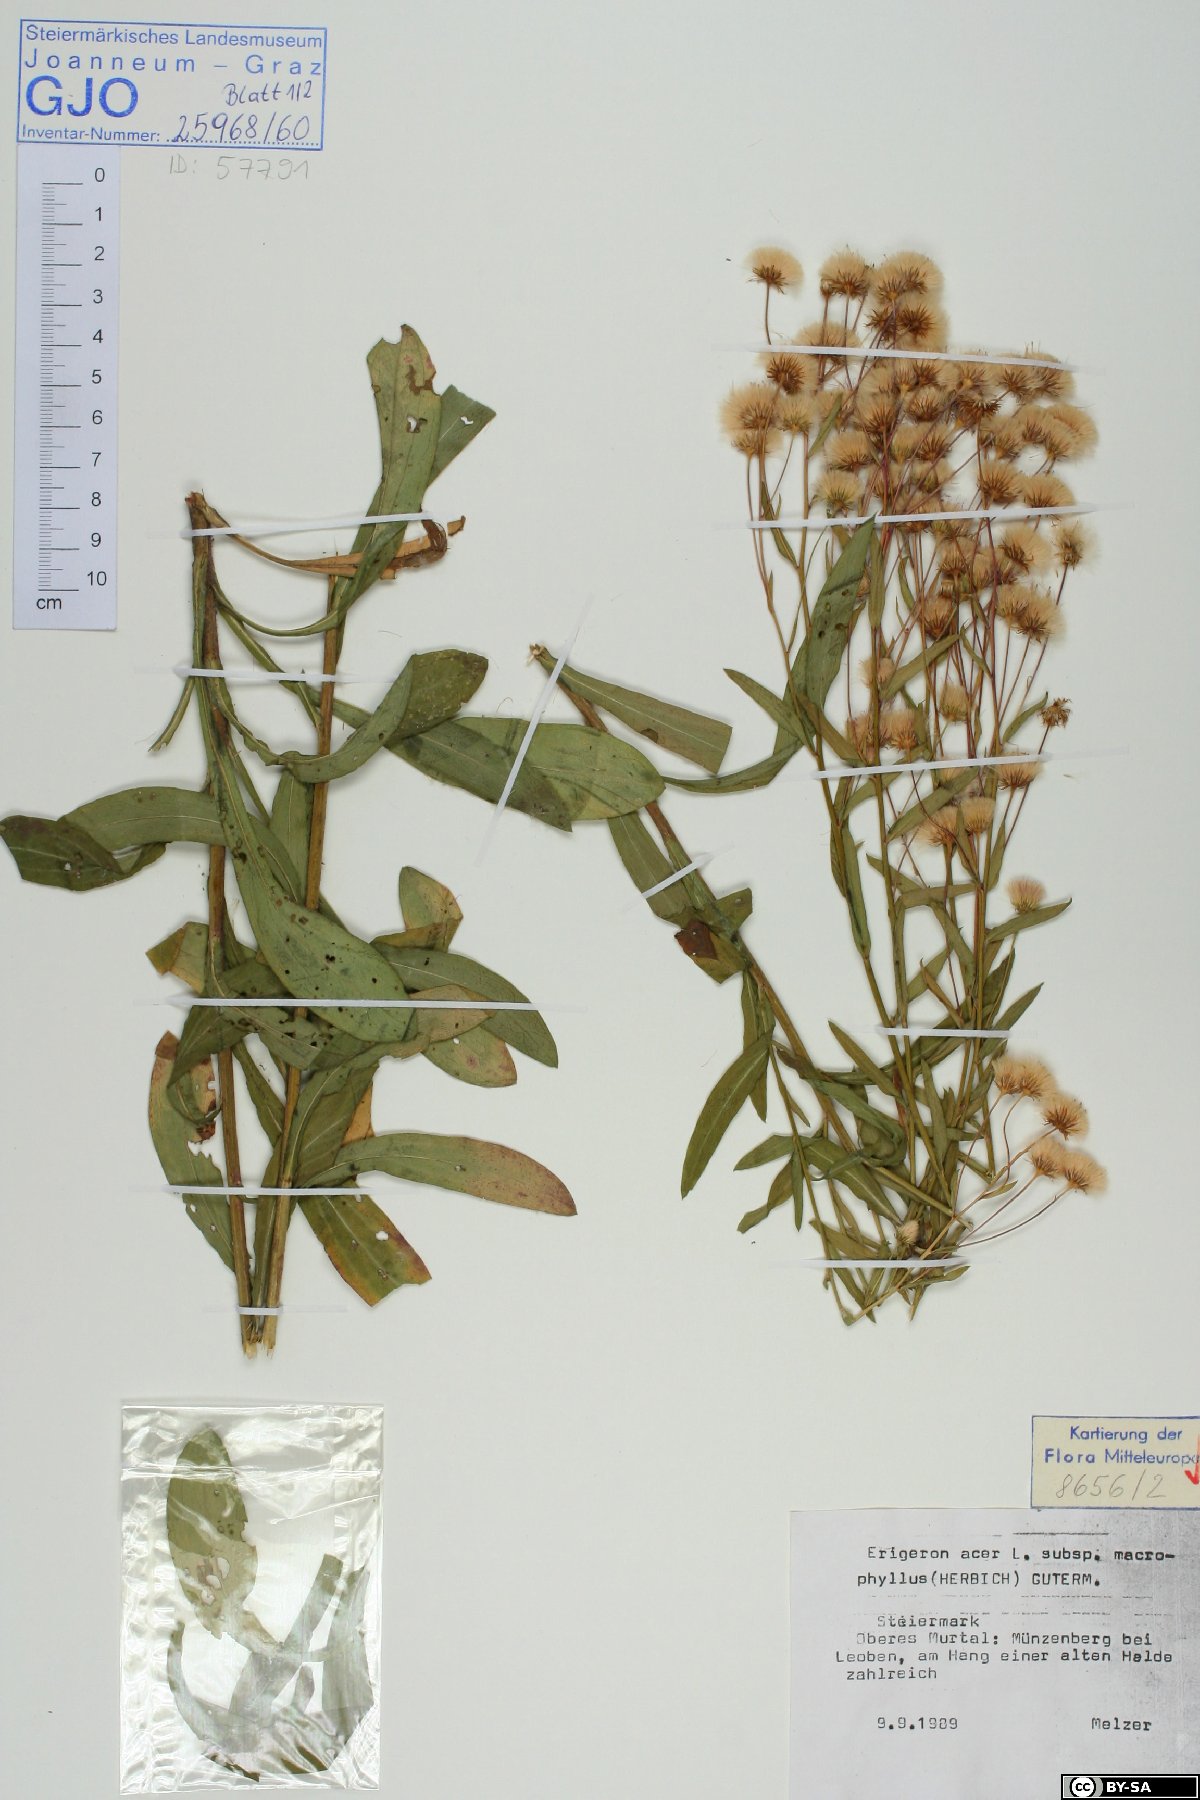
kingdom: Plantae
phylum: Tracheophyta
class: Magnoliopsida
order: Asterales
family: Asteraceae
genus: Erigeron
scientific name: Erigeron macrophyllus
